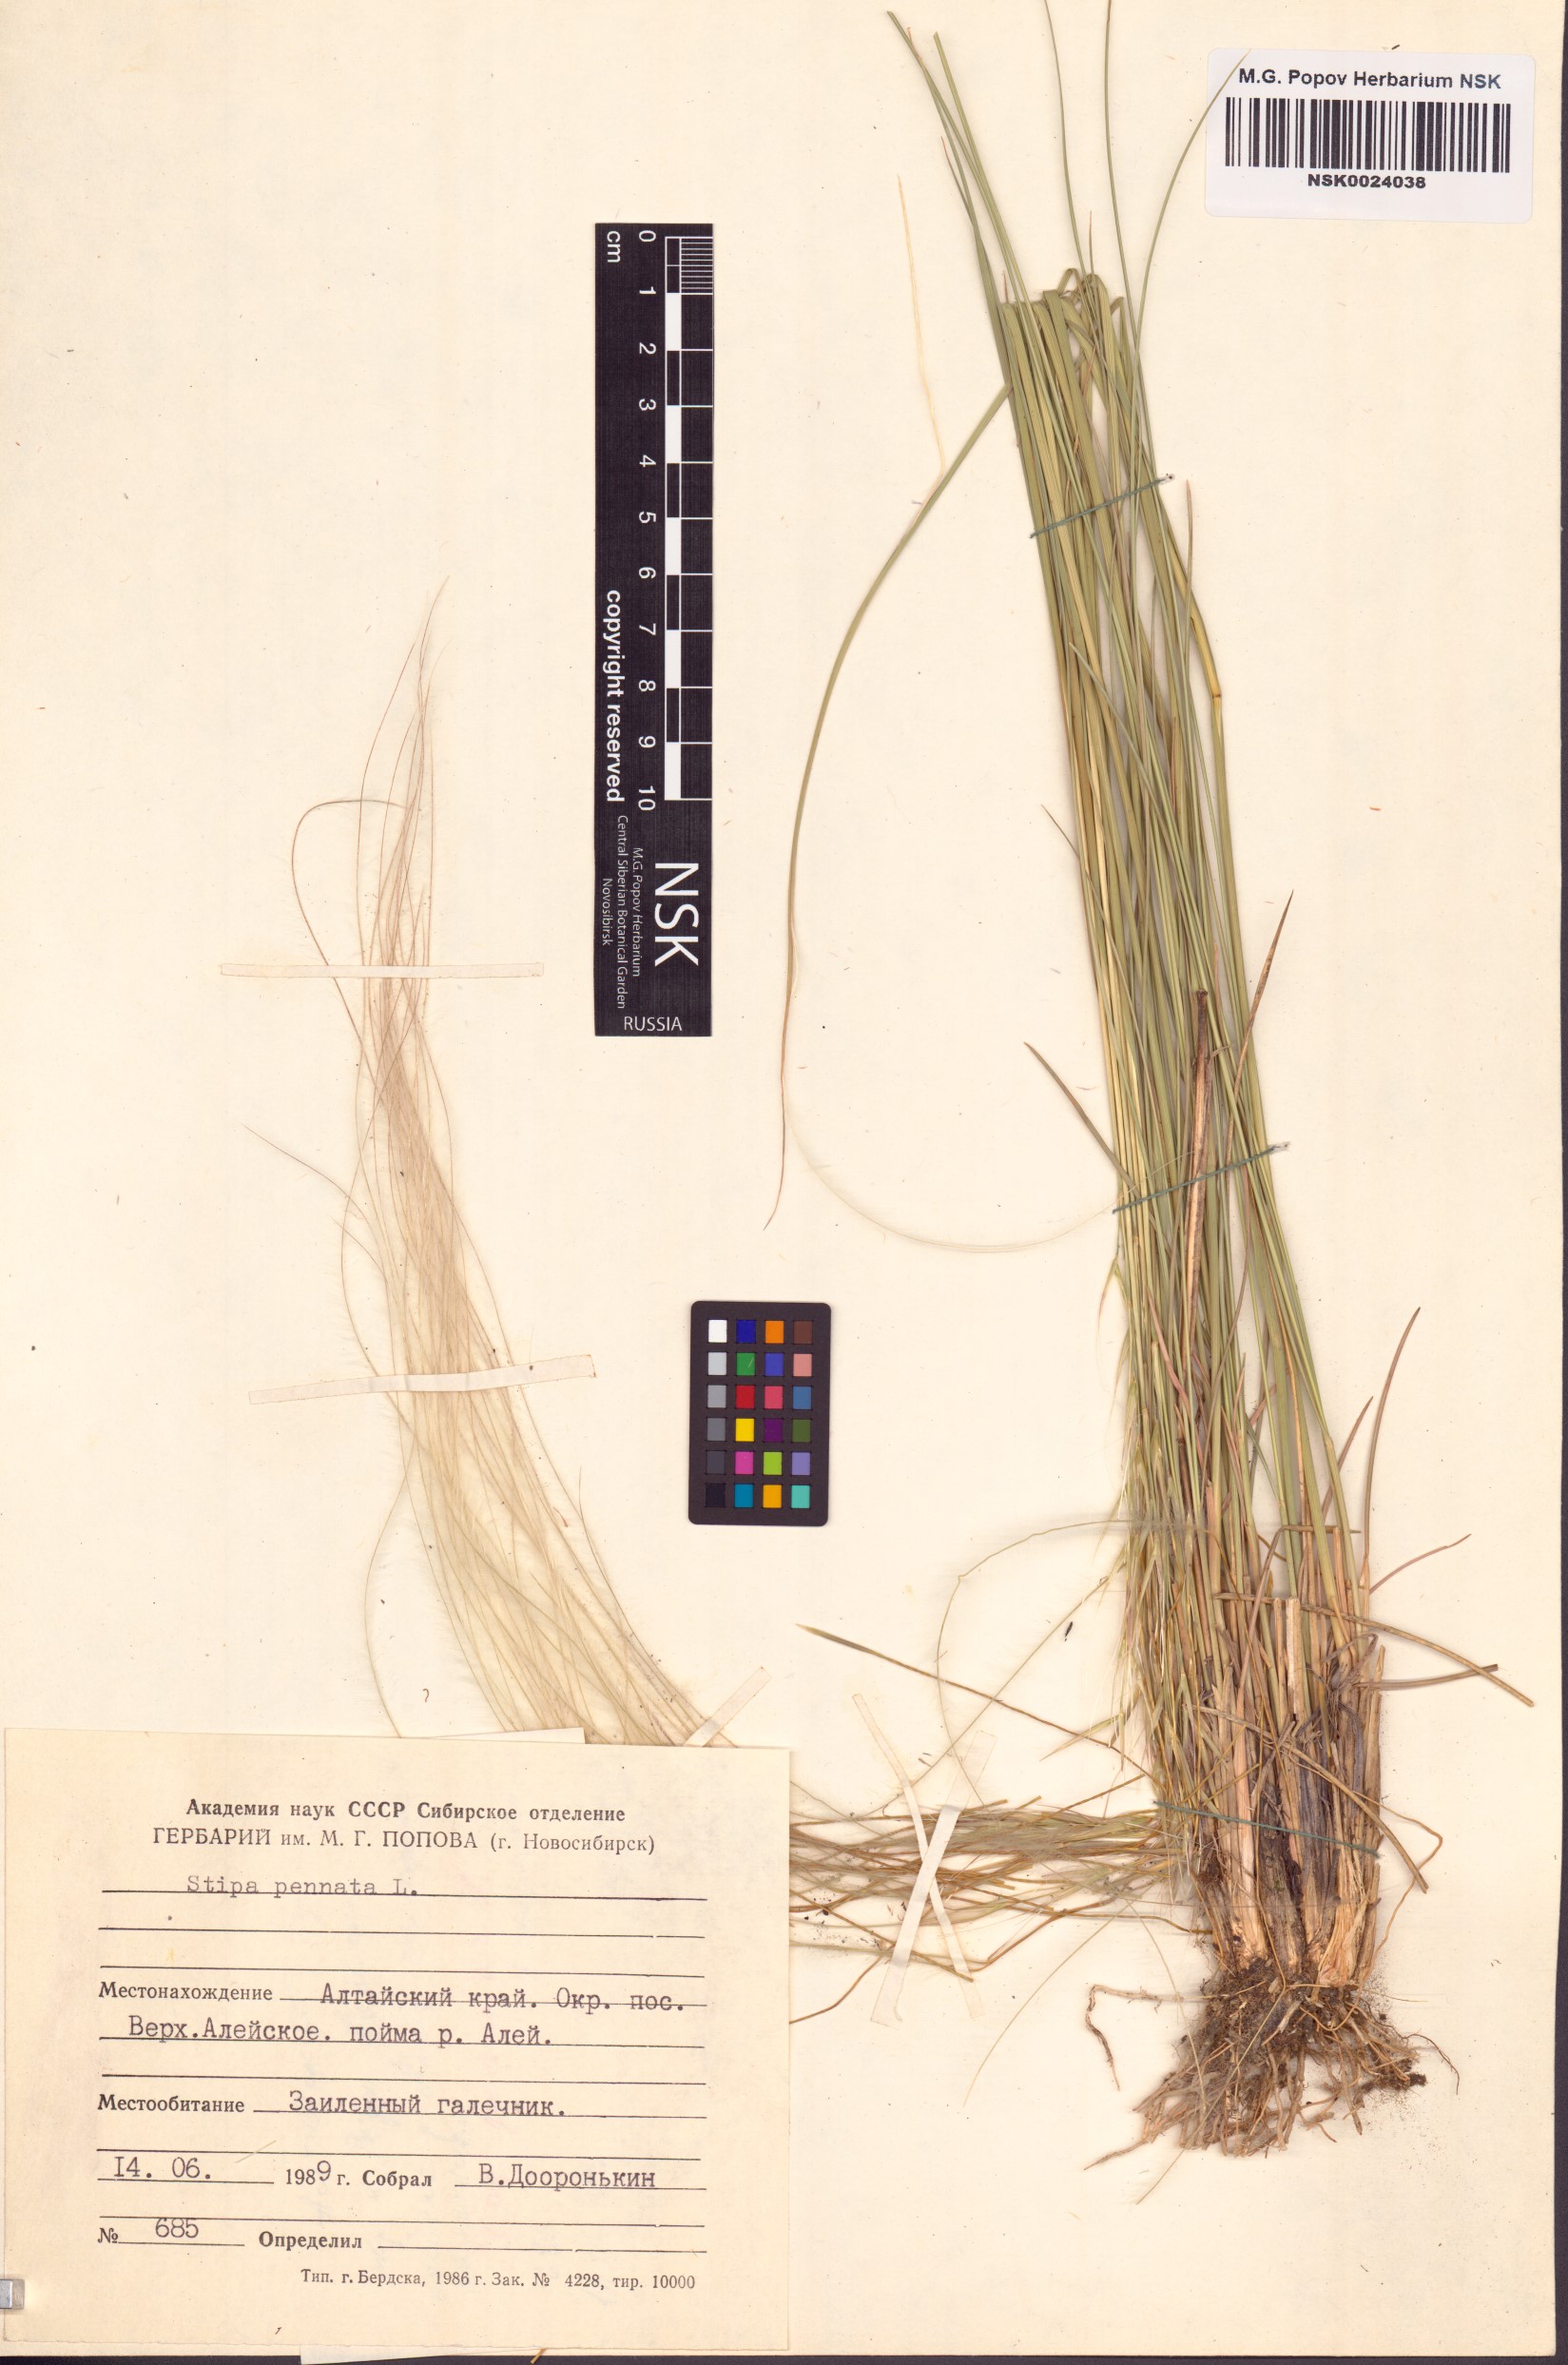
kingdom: Plantae
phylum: Tracheophyta
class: Liliopsida
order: Poales
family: Poaceae
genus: Stipa
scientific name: Stipa pennata
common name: European feather grass
